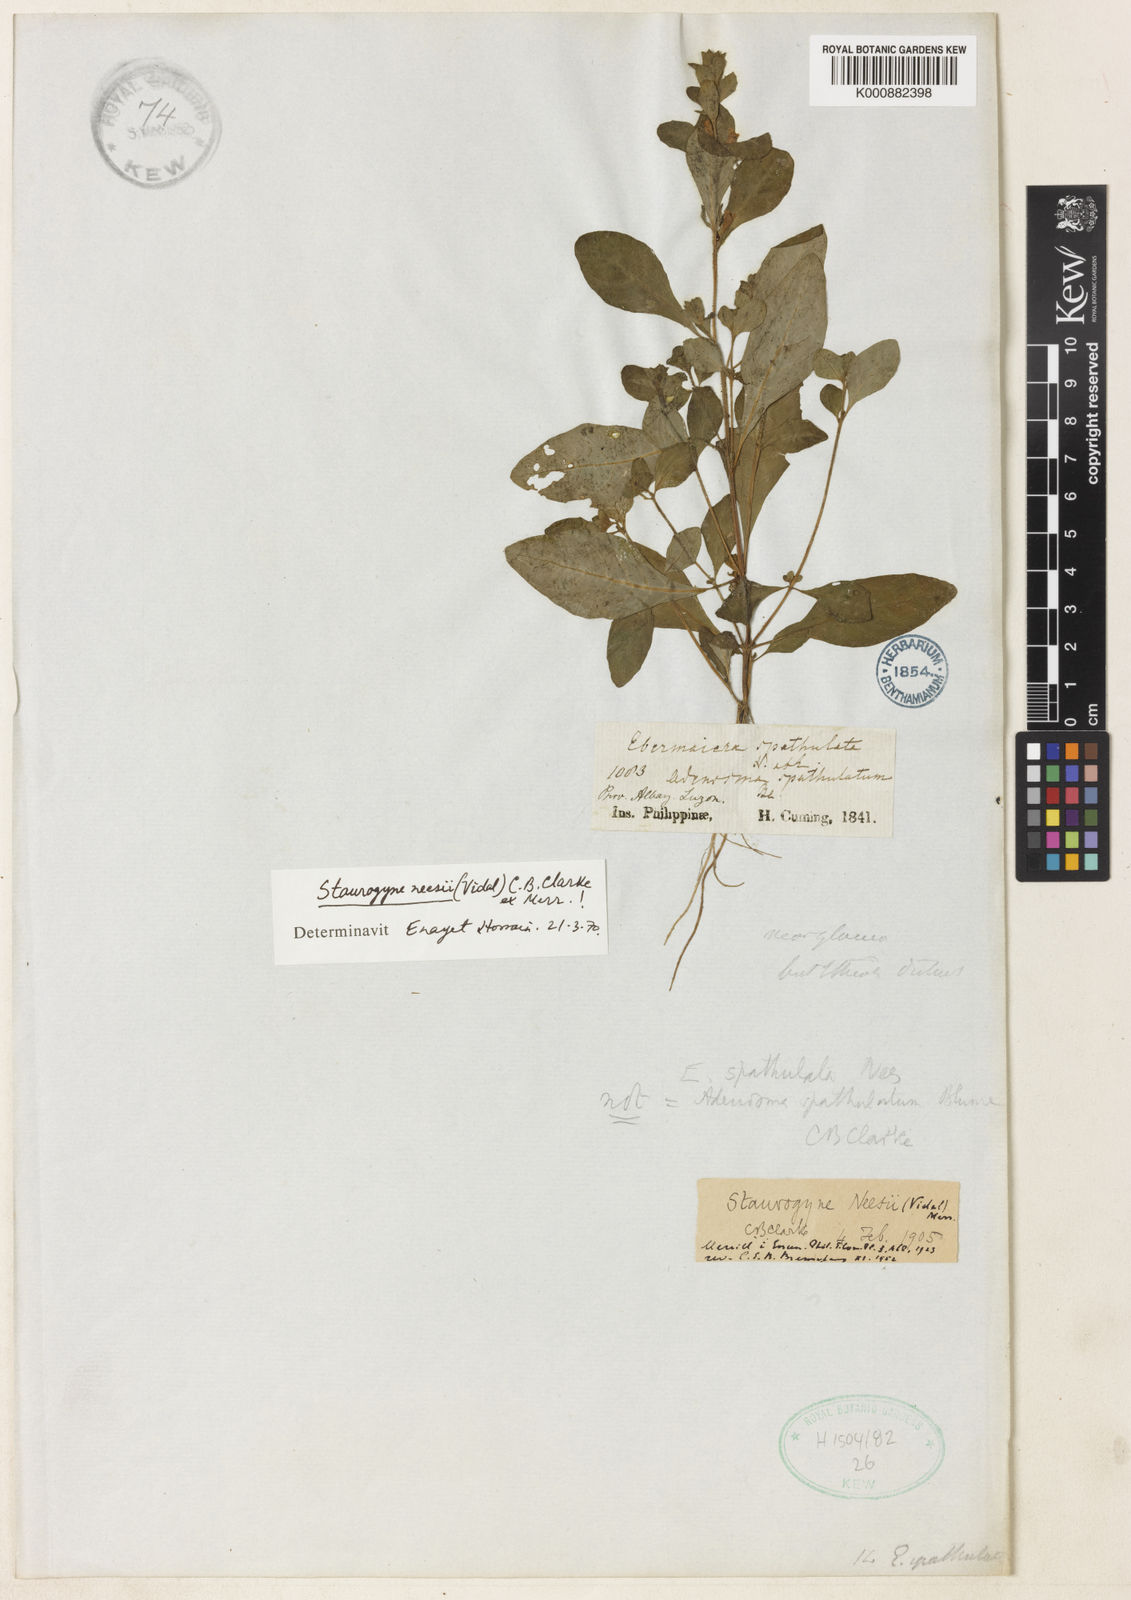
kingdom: Plantae
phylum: Tracheophyta
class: Magnoliopsida
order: Lamiales
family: Acanthaceae
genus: Staurogyne
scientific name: Staurogyne neesii
